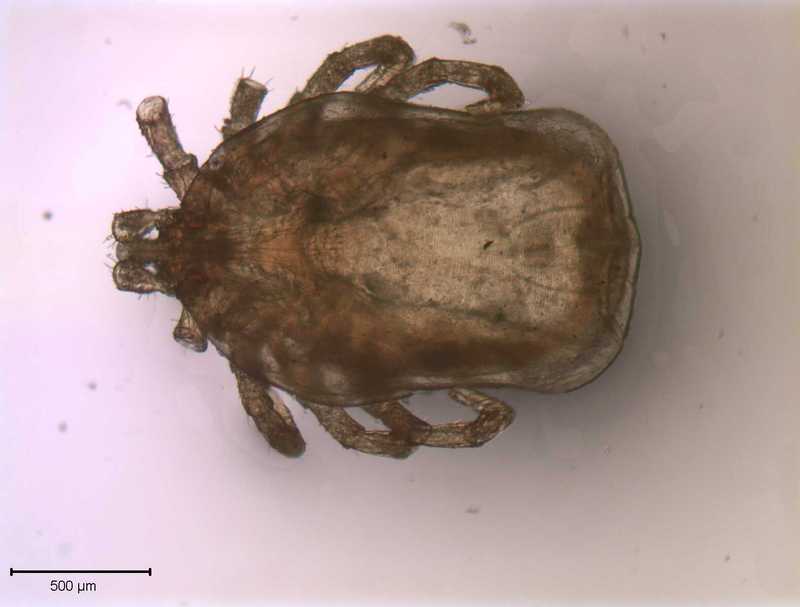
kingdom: Animalia
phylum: Arthropoda
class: Arachnida
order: Ixodida
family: Ixodidae
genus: Ixodes
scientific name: Ixodes
